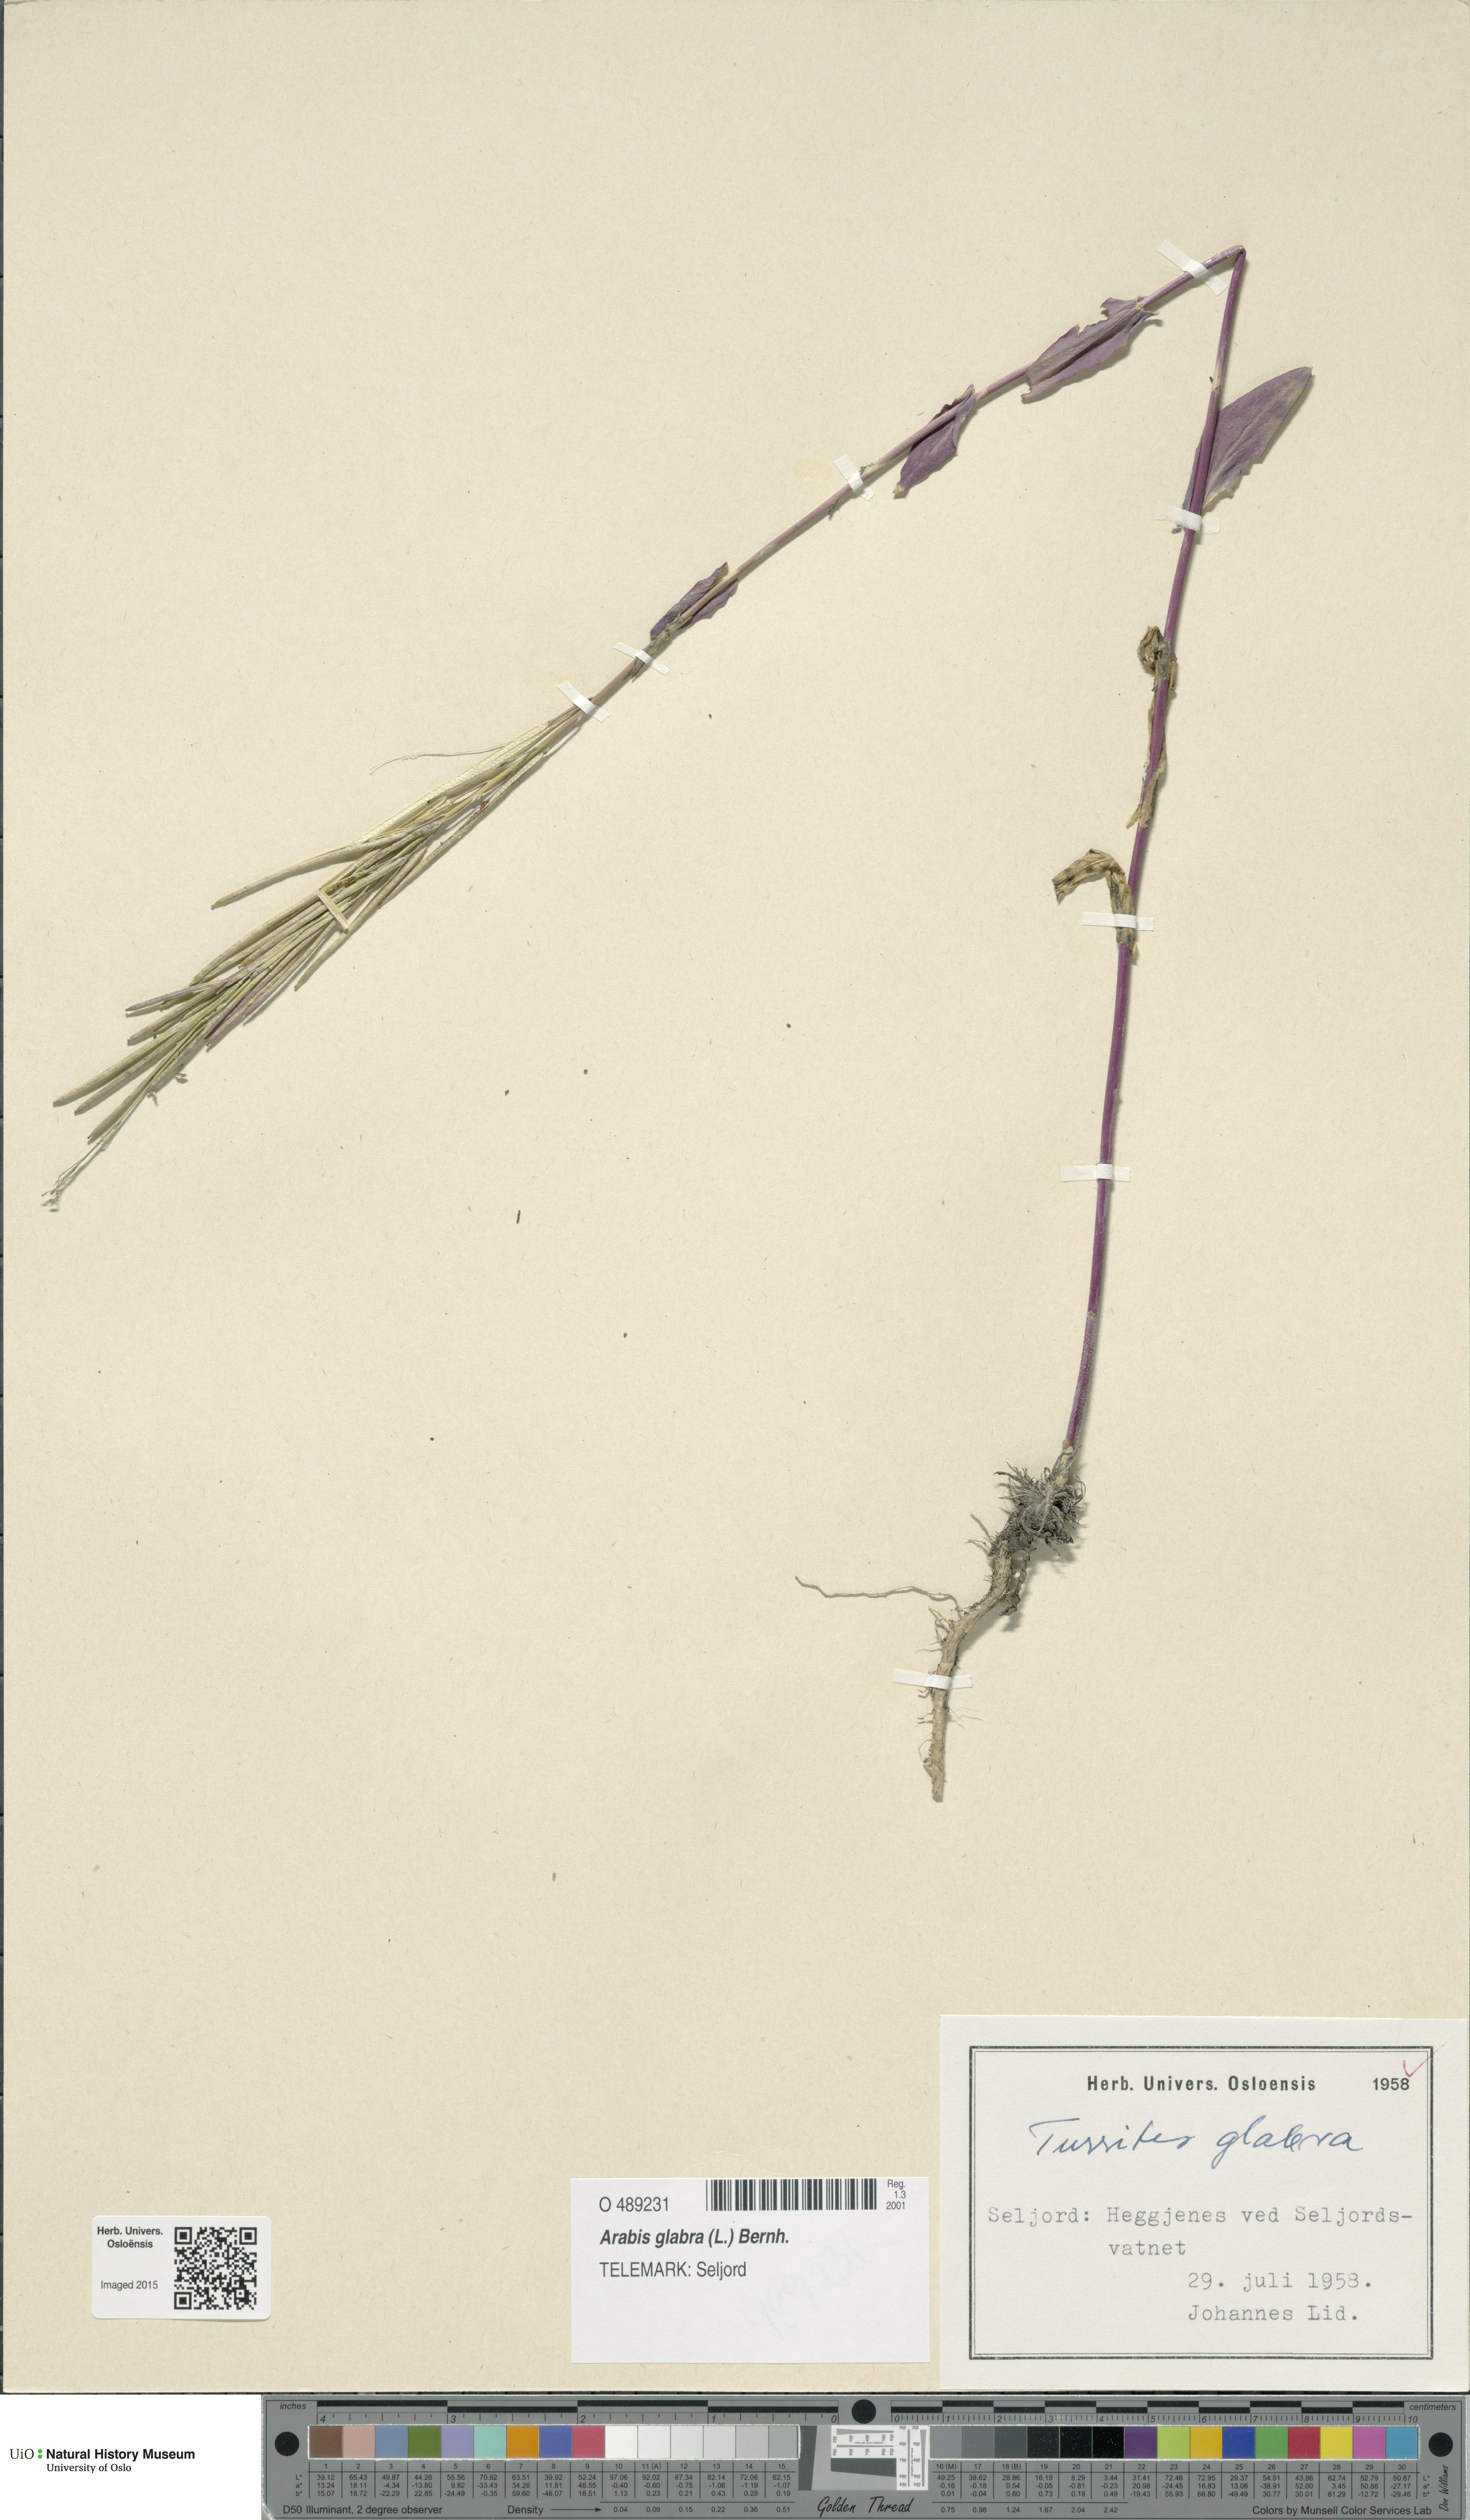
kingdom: Plantae
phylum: Tracheophyta
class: Magnoliopsida
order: Brassicales
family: Brassicaceae
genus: Turritis
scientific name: Turritis glabra
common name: Tower rockcress
